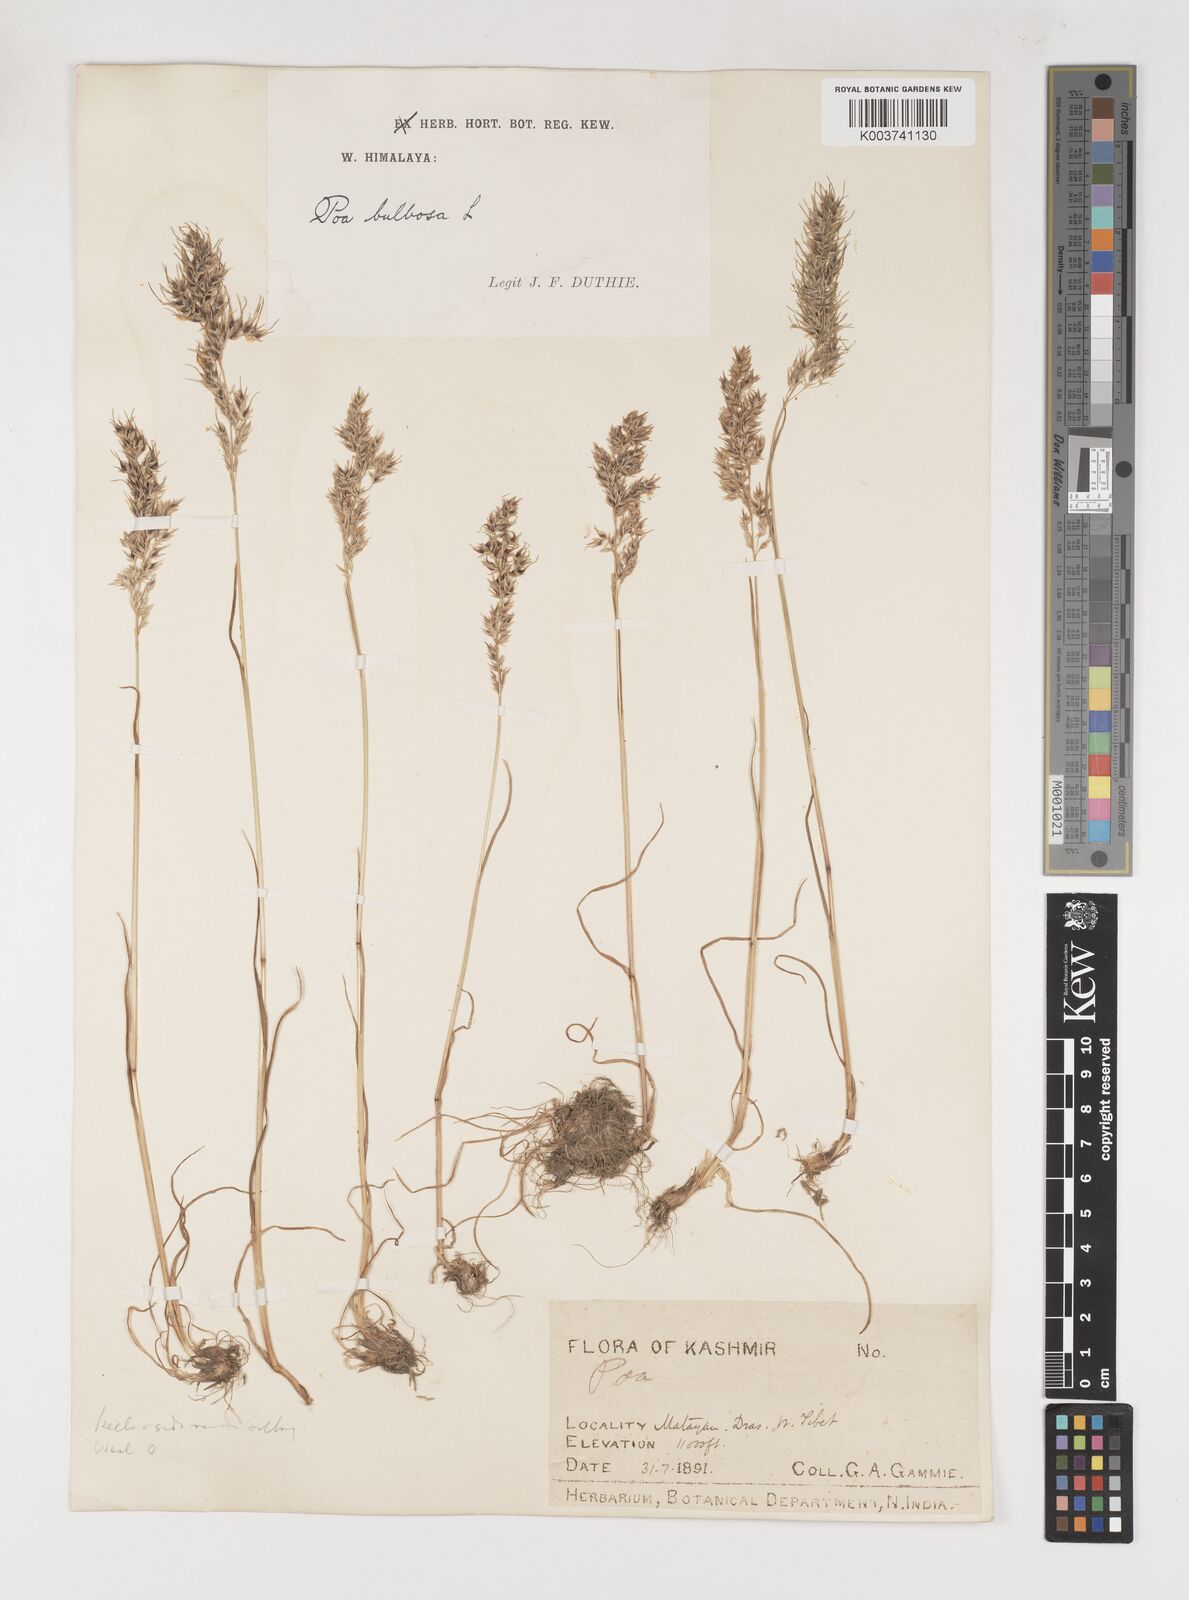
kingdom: Plantae
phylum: Tracheophyta
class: Liliopsida
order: Poales
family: Poaceae
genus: Poa
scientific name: Poa bulbosa
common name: Bulbous bluegrass
